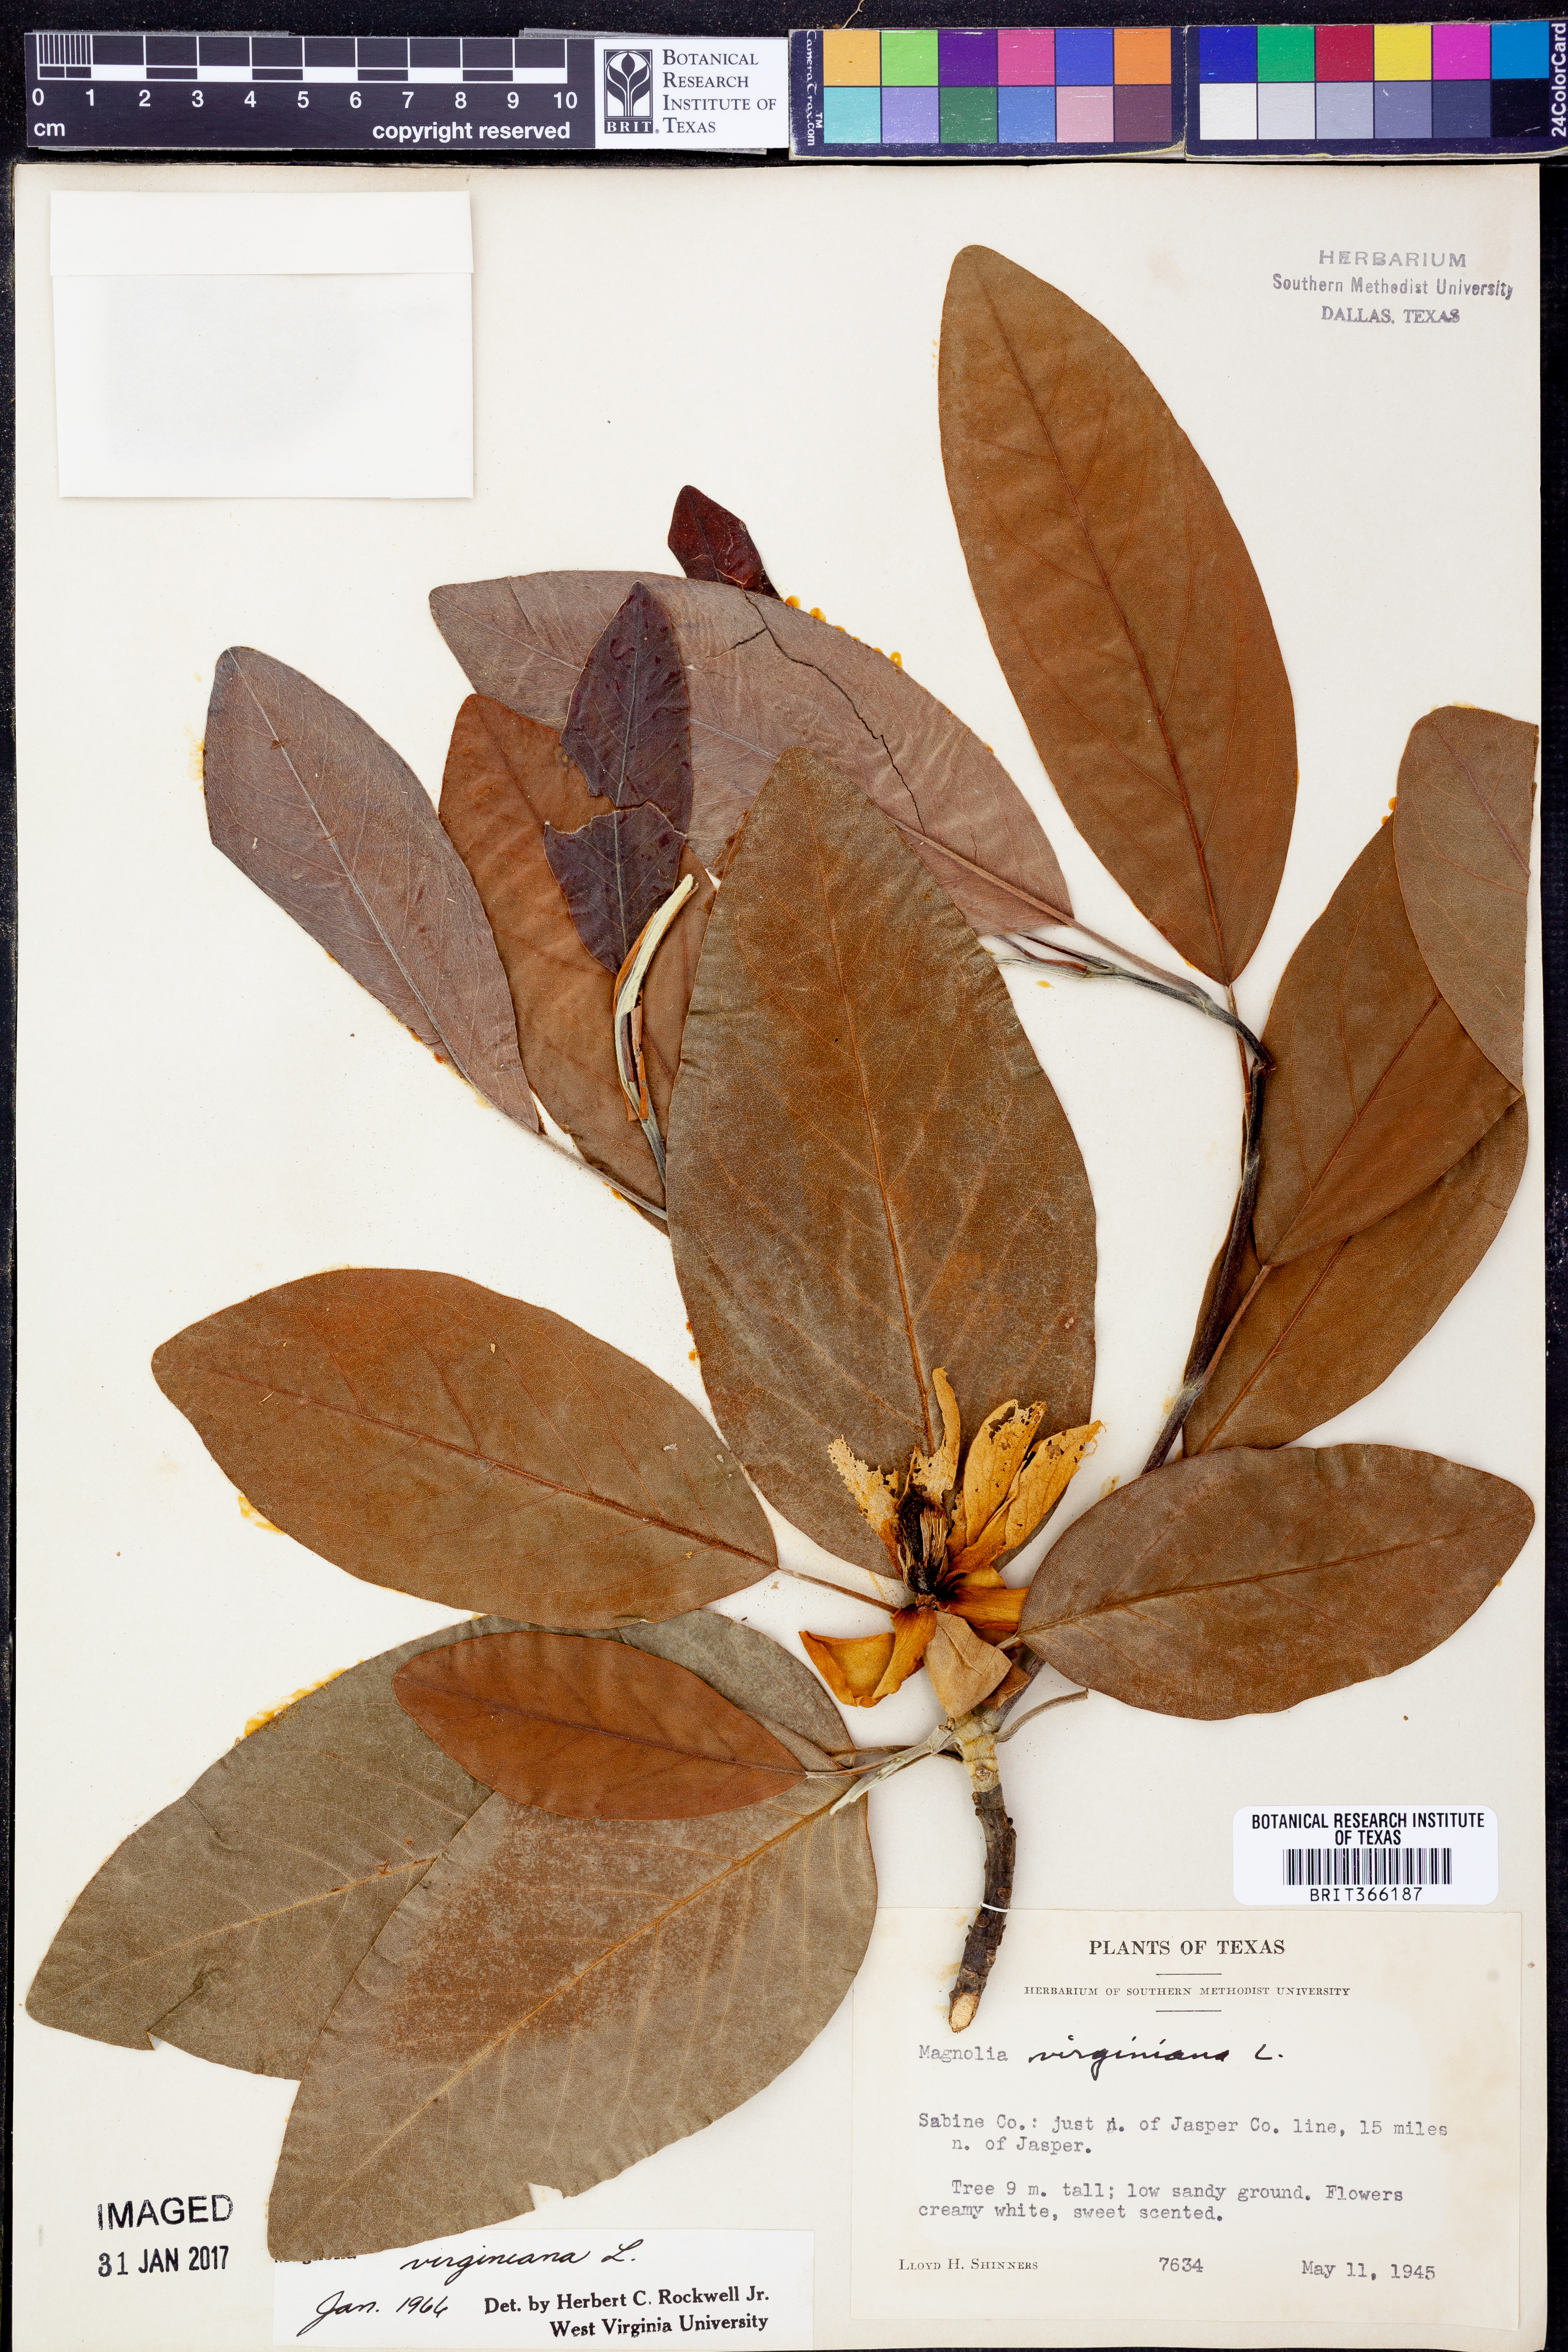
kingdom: Plantae
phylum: Tracheophyta
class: Magnoliopsida
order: Magnoliales
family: Magnoliaceae
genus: Magnolia
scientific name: Magnolia virginiana
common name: Swamp bay
